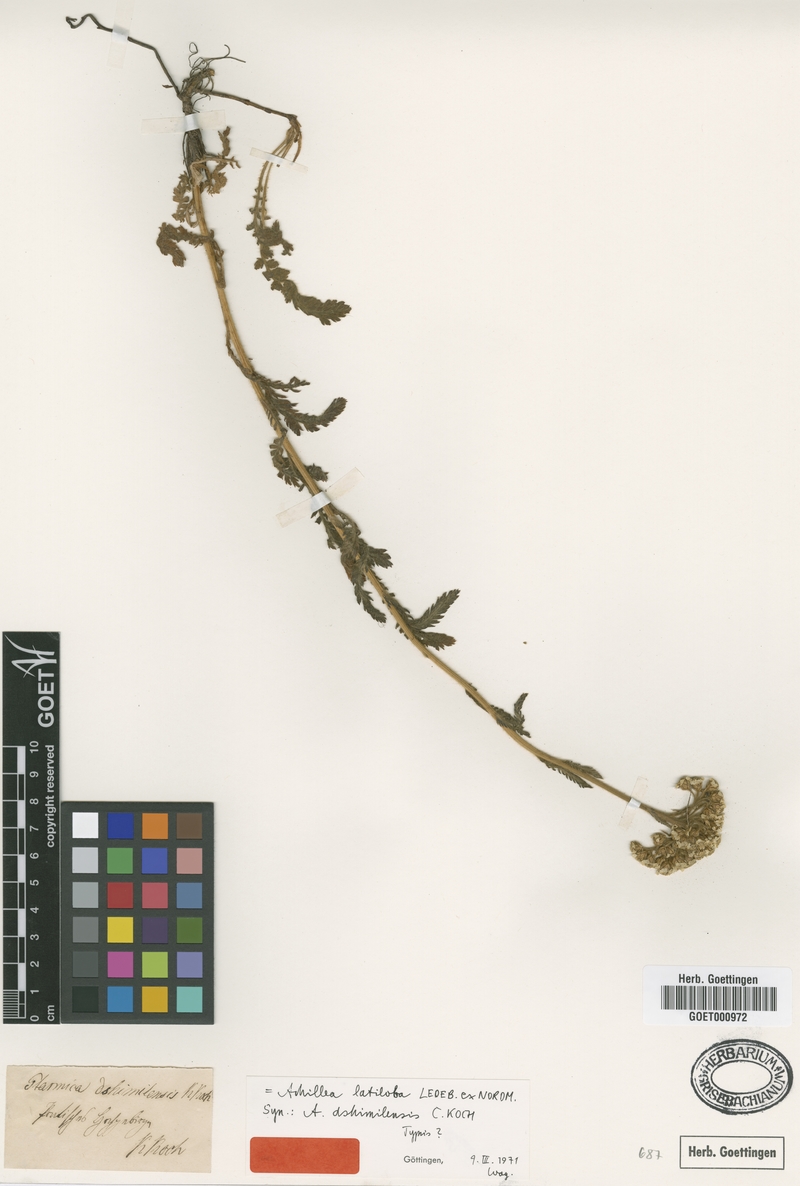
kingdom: Plantae
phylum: Tracheophyta
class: Magnoliopsida
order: Asterales
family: Asteraceae
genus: Achillea
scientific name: Achillea latiloba
